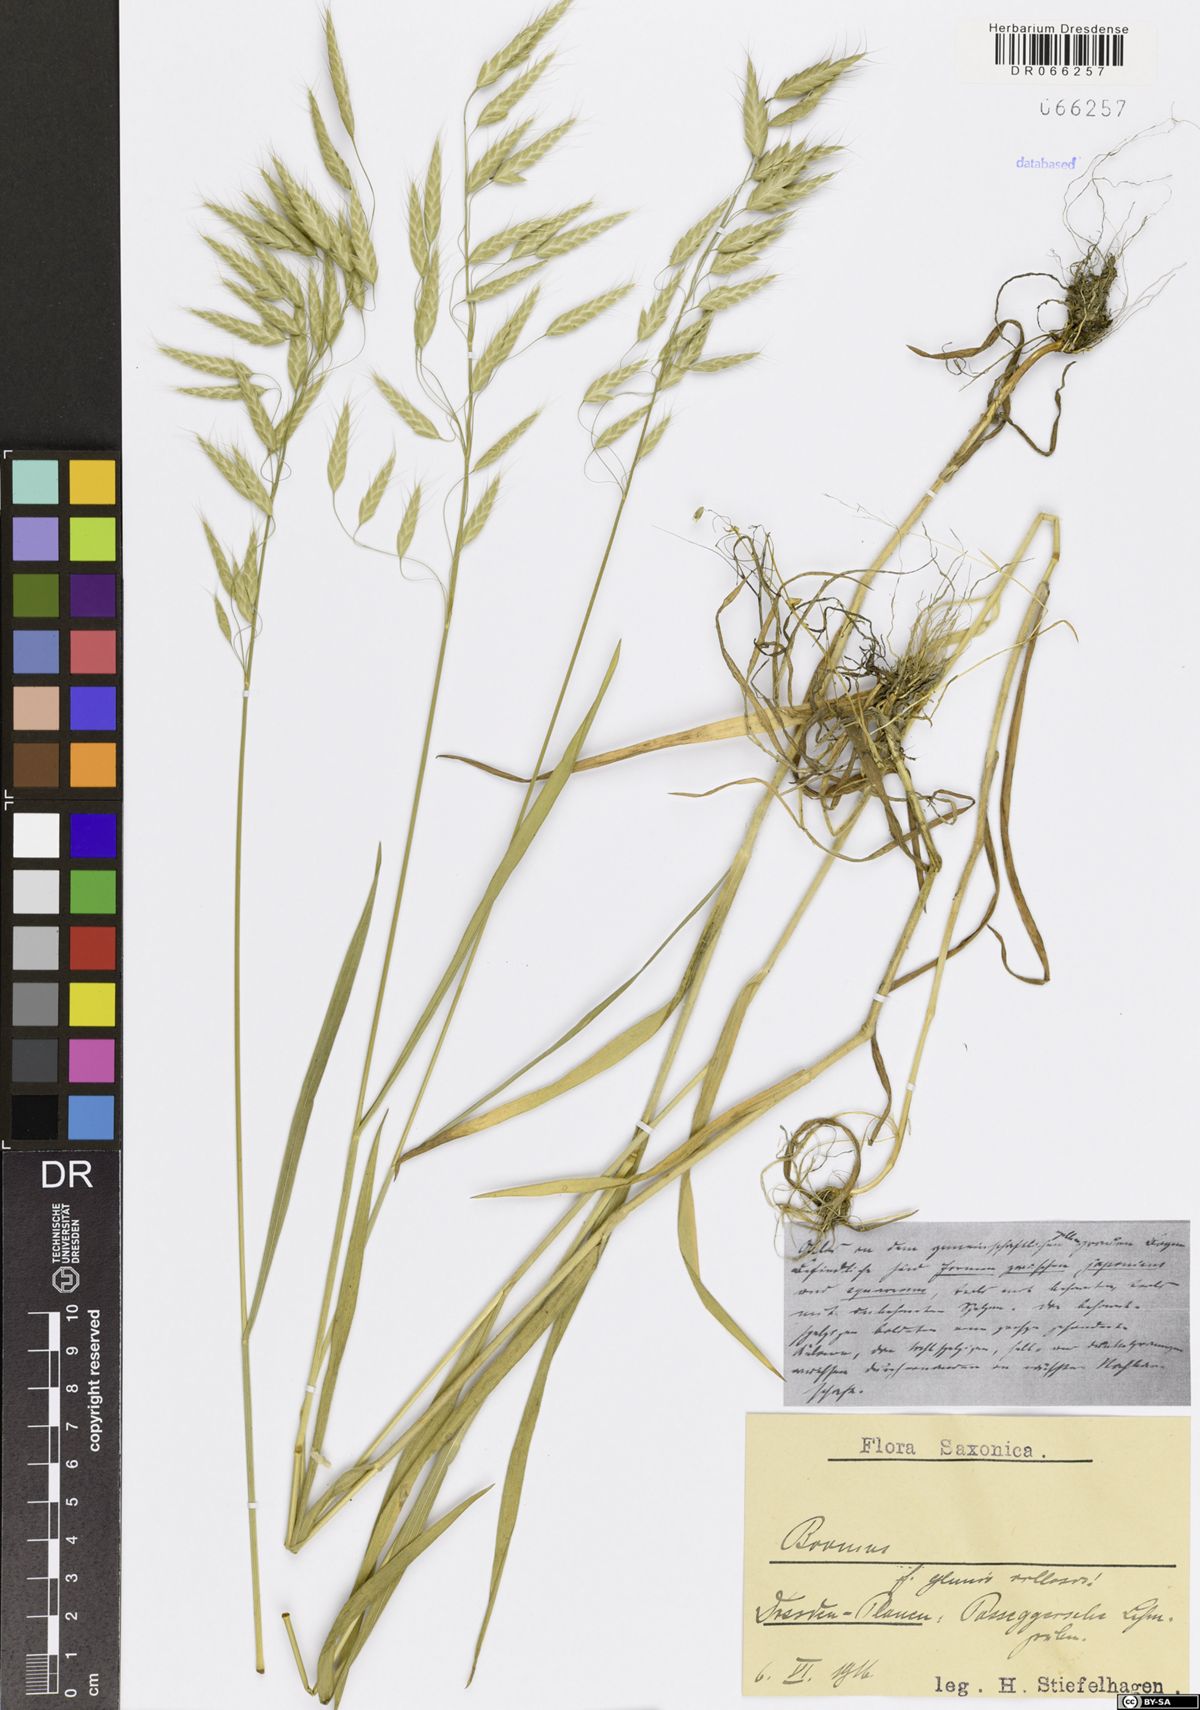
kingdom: Plantae
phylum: Tracheophyta
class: Liliopsida
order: Poales
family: Poaceae
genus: Bromus
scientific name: Bromus
